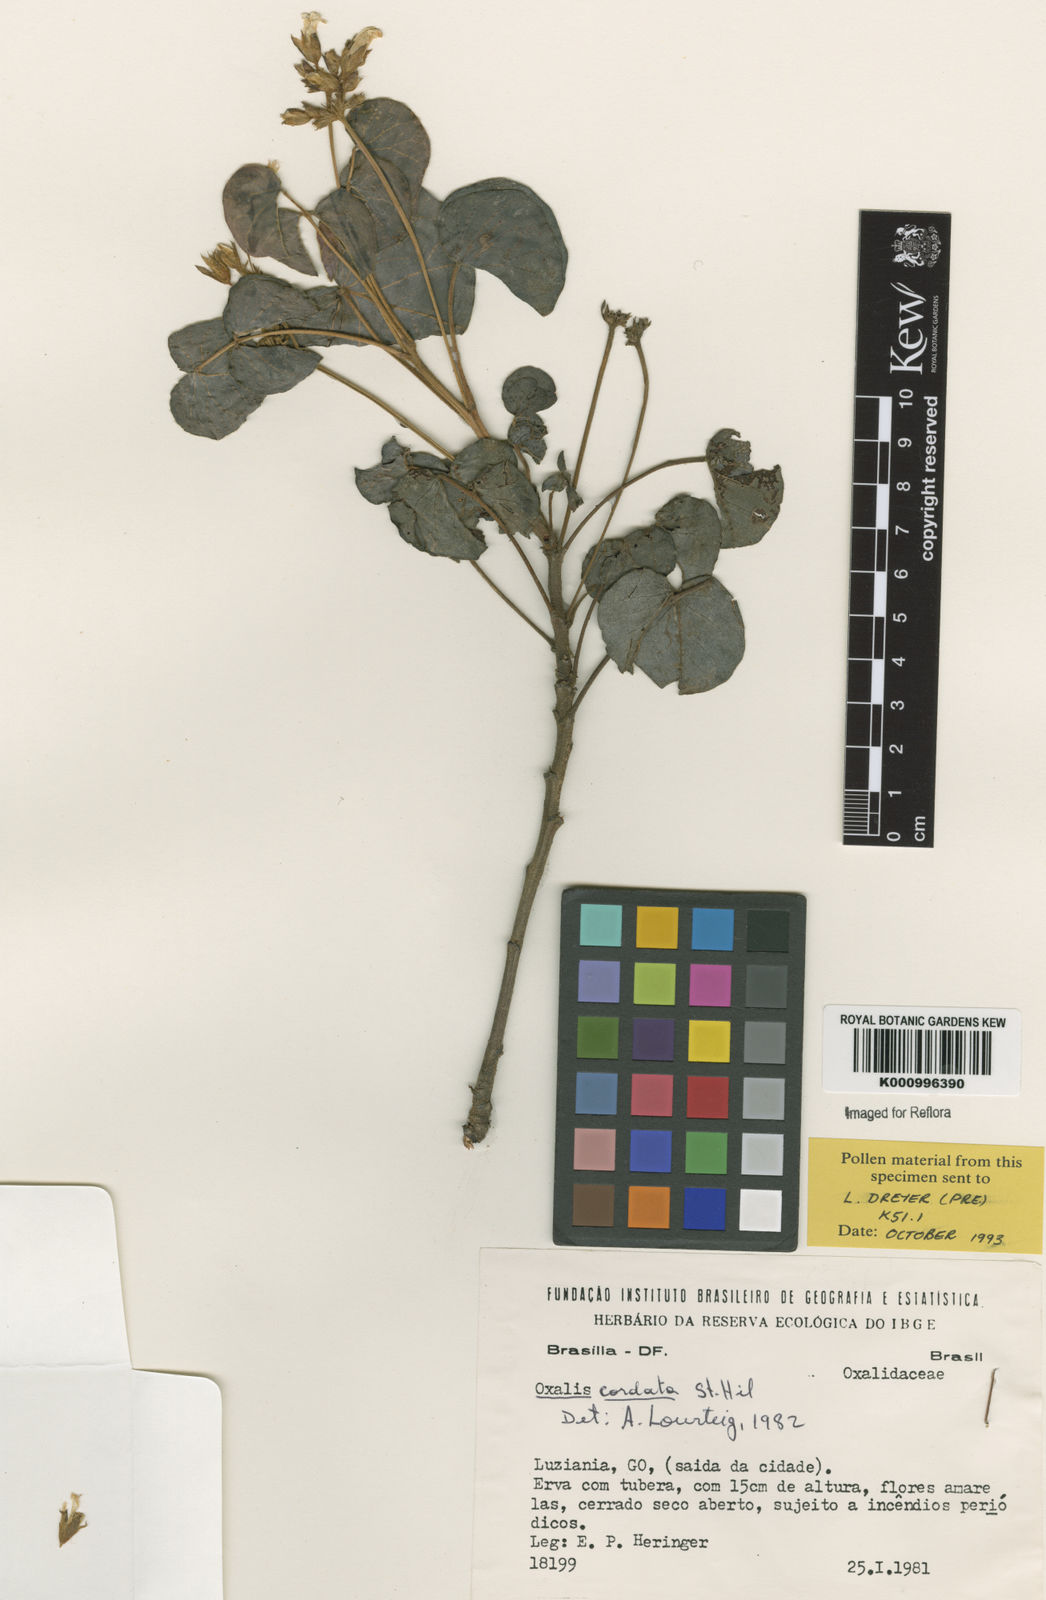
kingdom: Plantae
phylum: Tracheophyta
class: Magnoliopsida
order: Oxalidales
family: Oxalidaceae
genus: Oxalis
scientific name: Oxalis cordata
